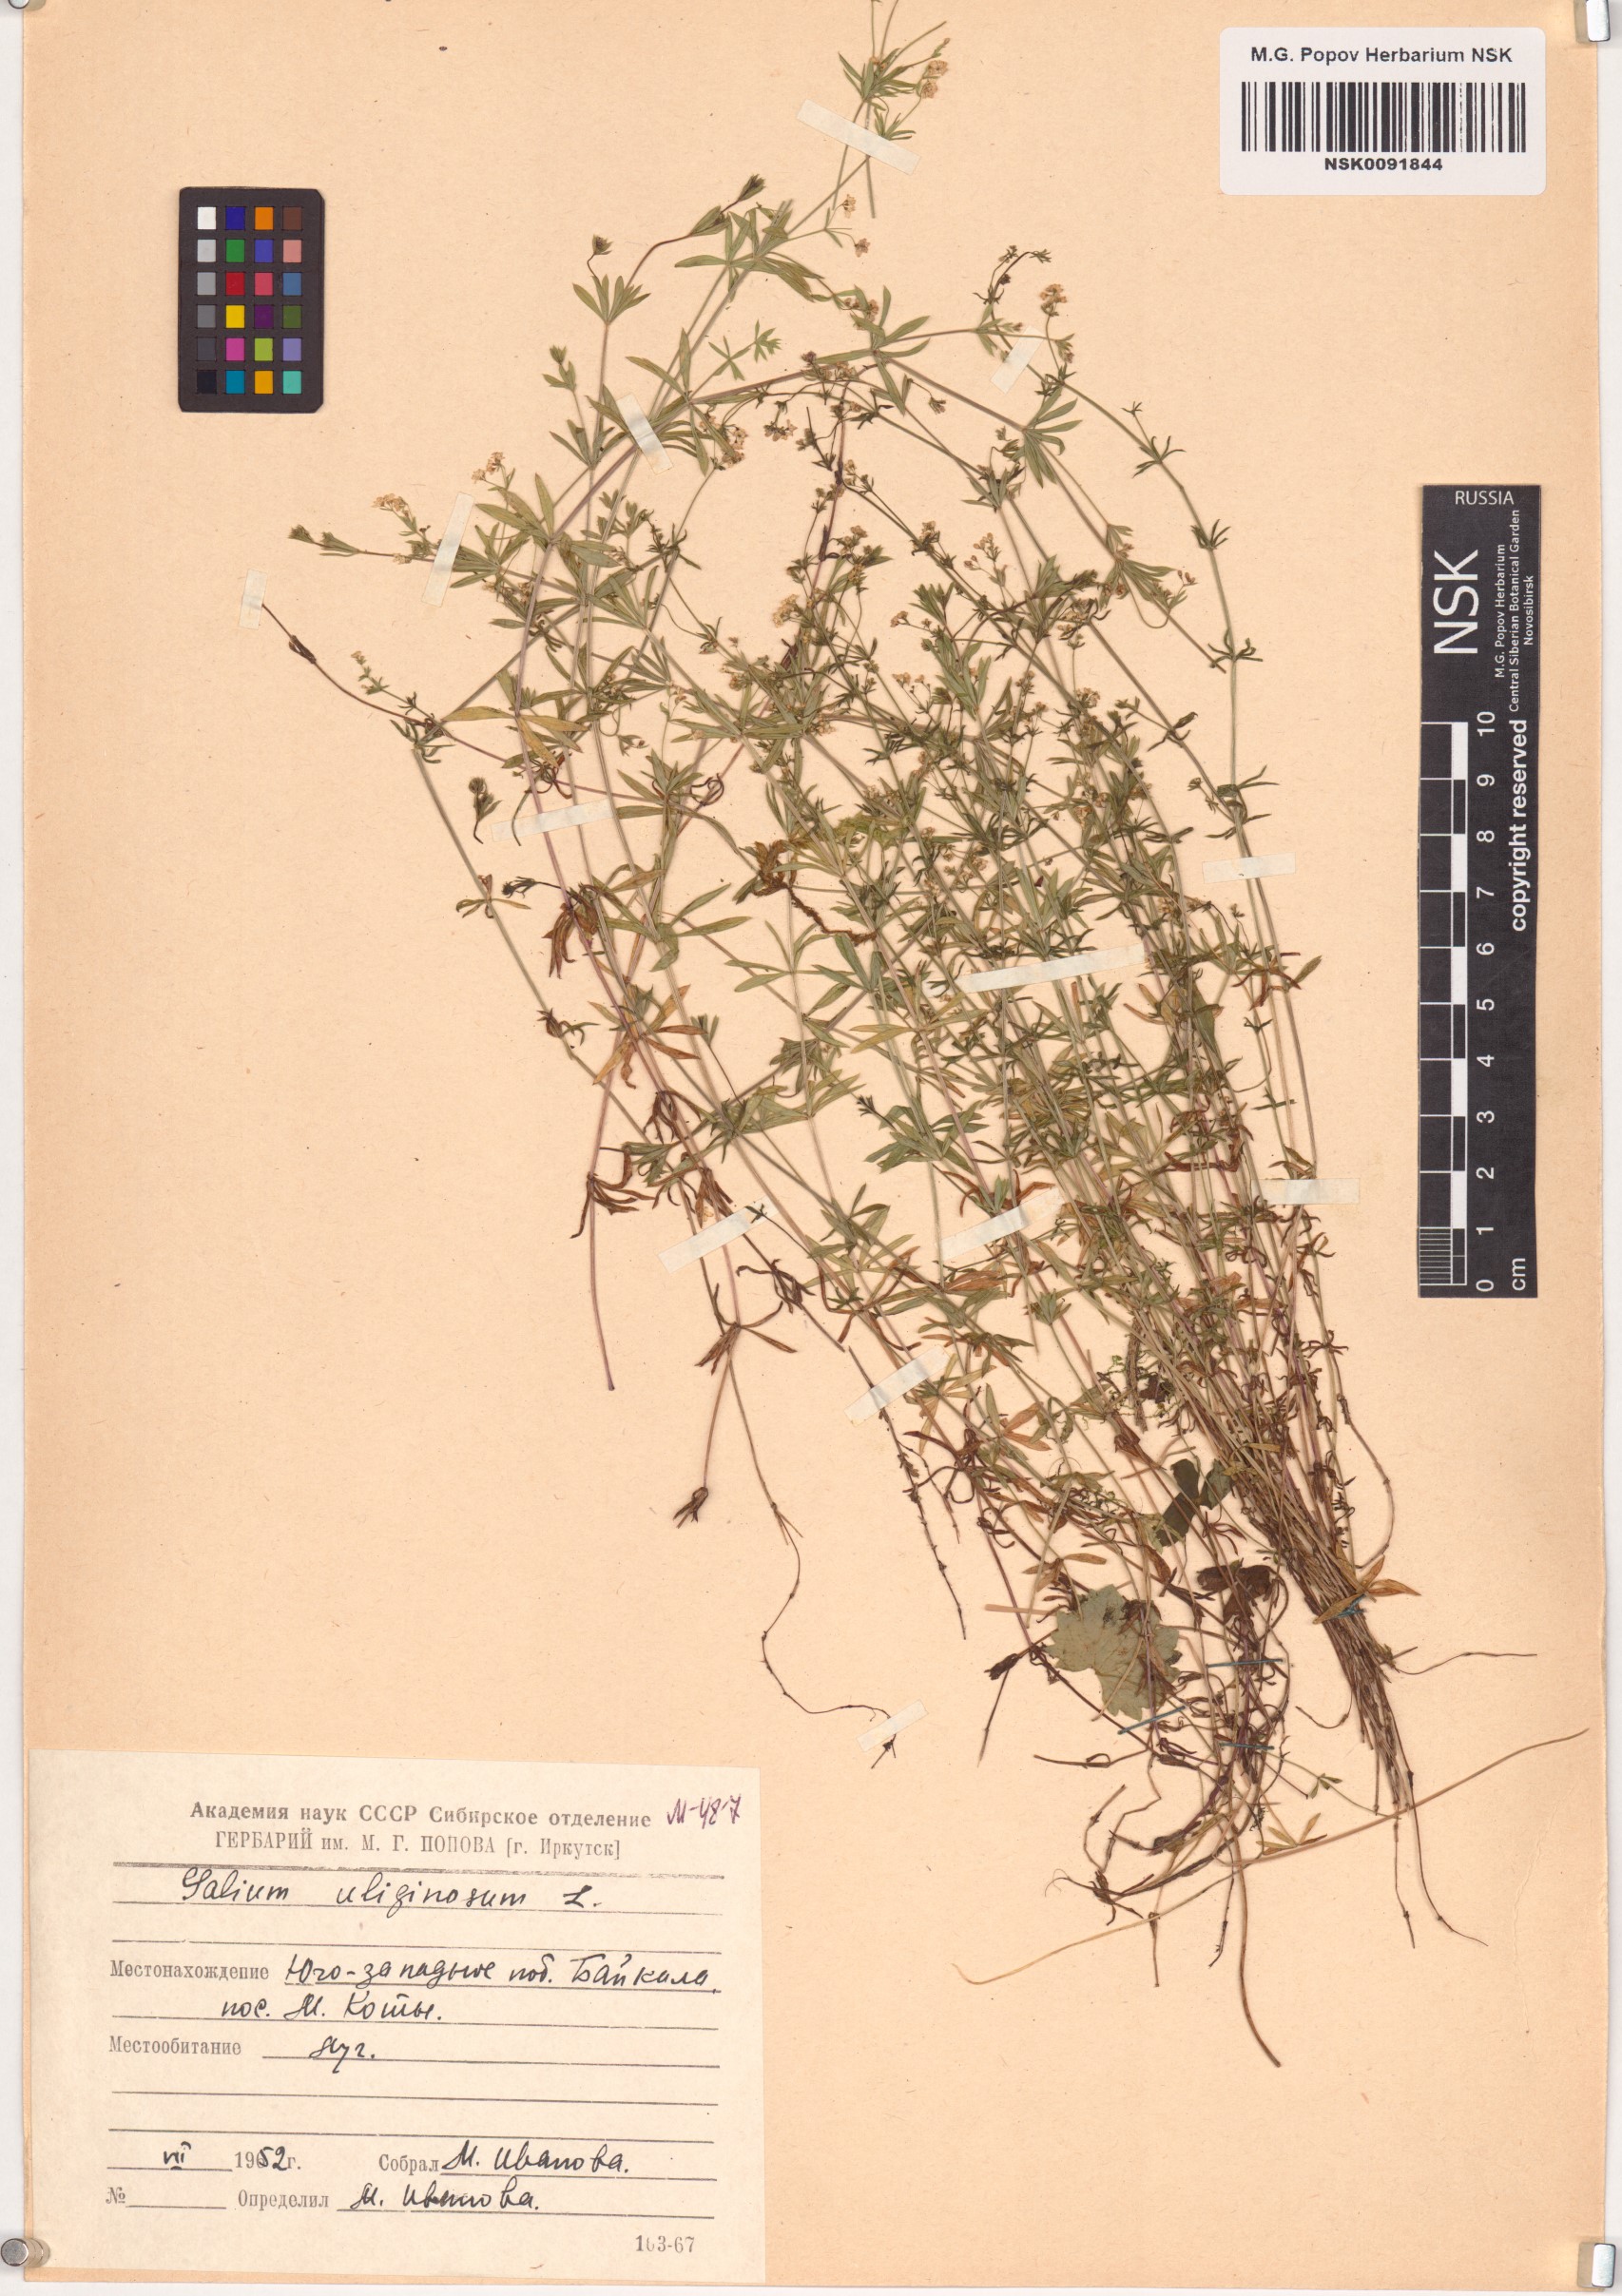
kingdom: Plantae
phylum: Tracheophyta
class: Magnoliopsida
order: Gentianales
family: Rubiaceae
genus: Galium
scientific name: Galium uliginosum
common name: Fen bedstraw
